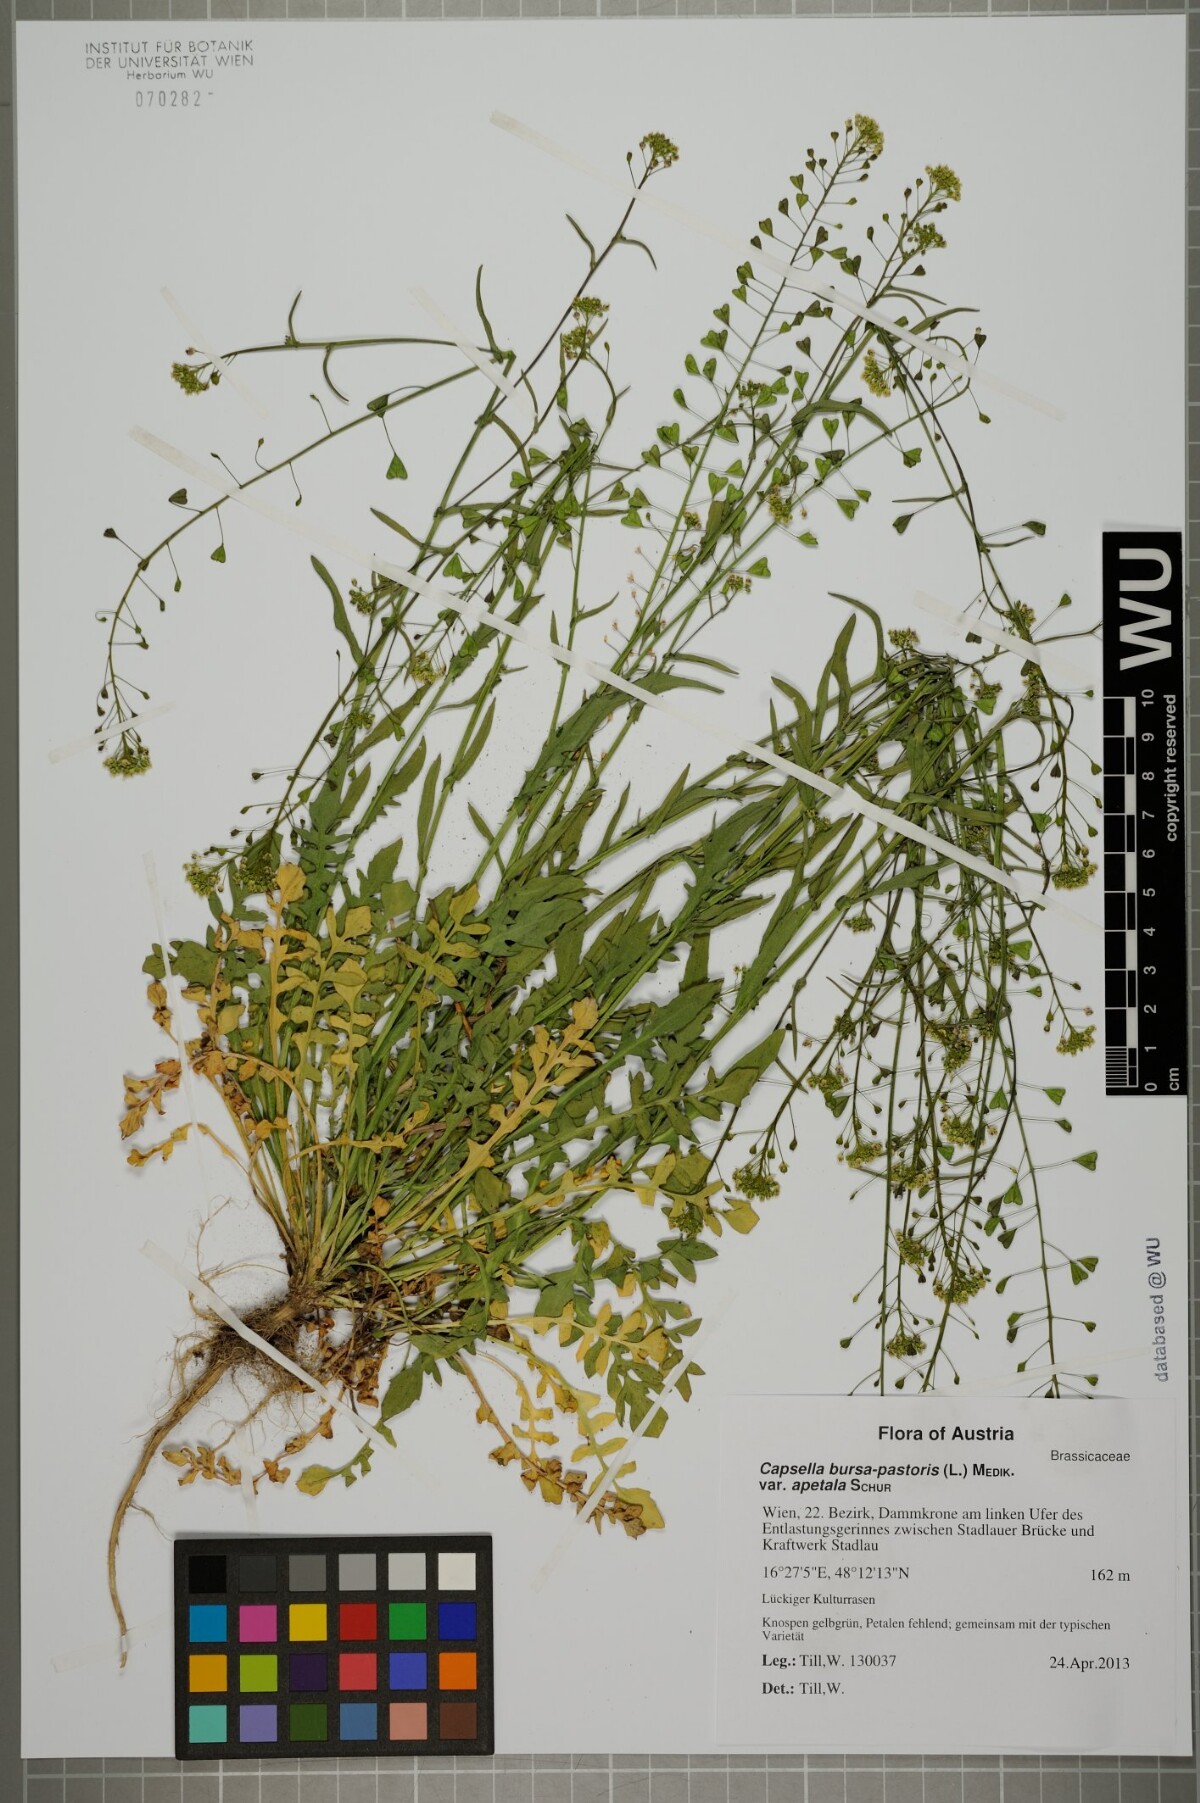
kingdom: Plantae
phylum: Tracheophyta
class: Magnoliopsida
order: Brassicales
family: Brassicaceae
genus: Capsella
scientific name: Capsella bursa-pastoris
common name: Shepherd's purse
